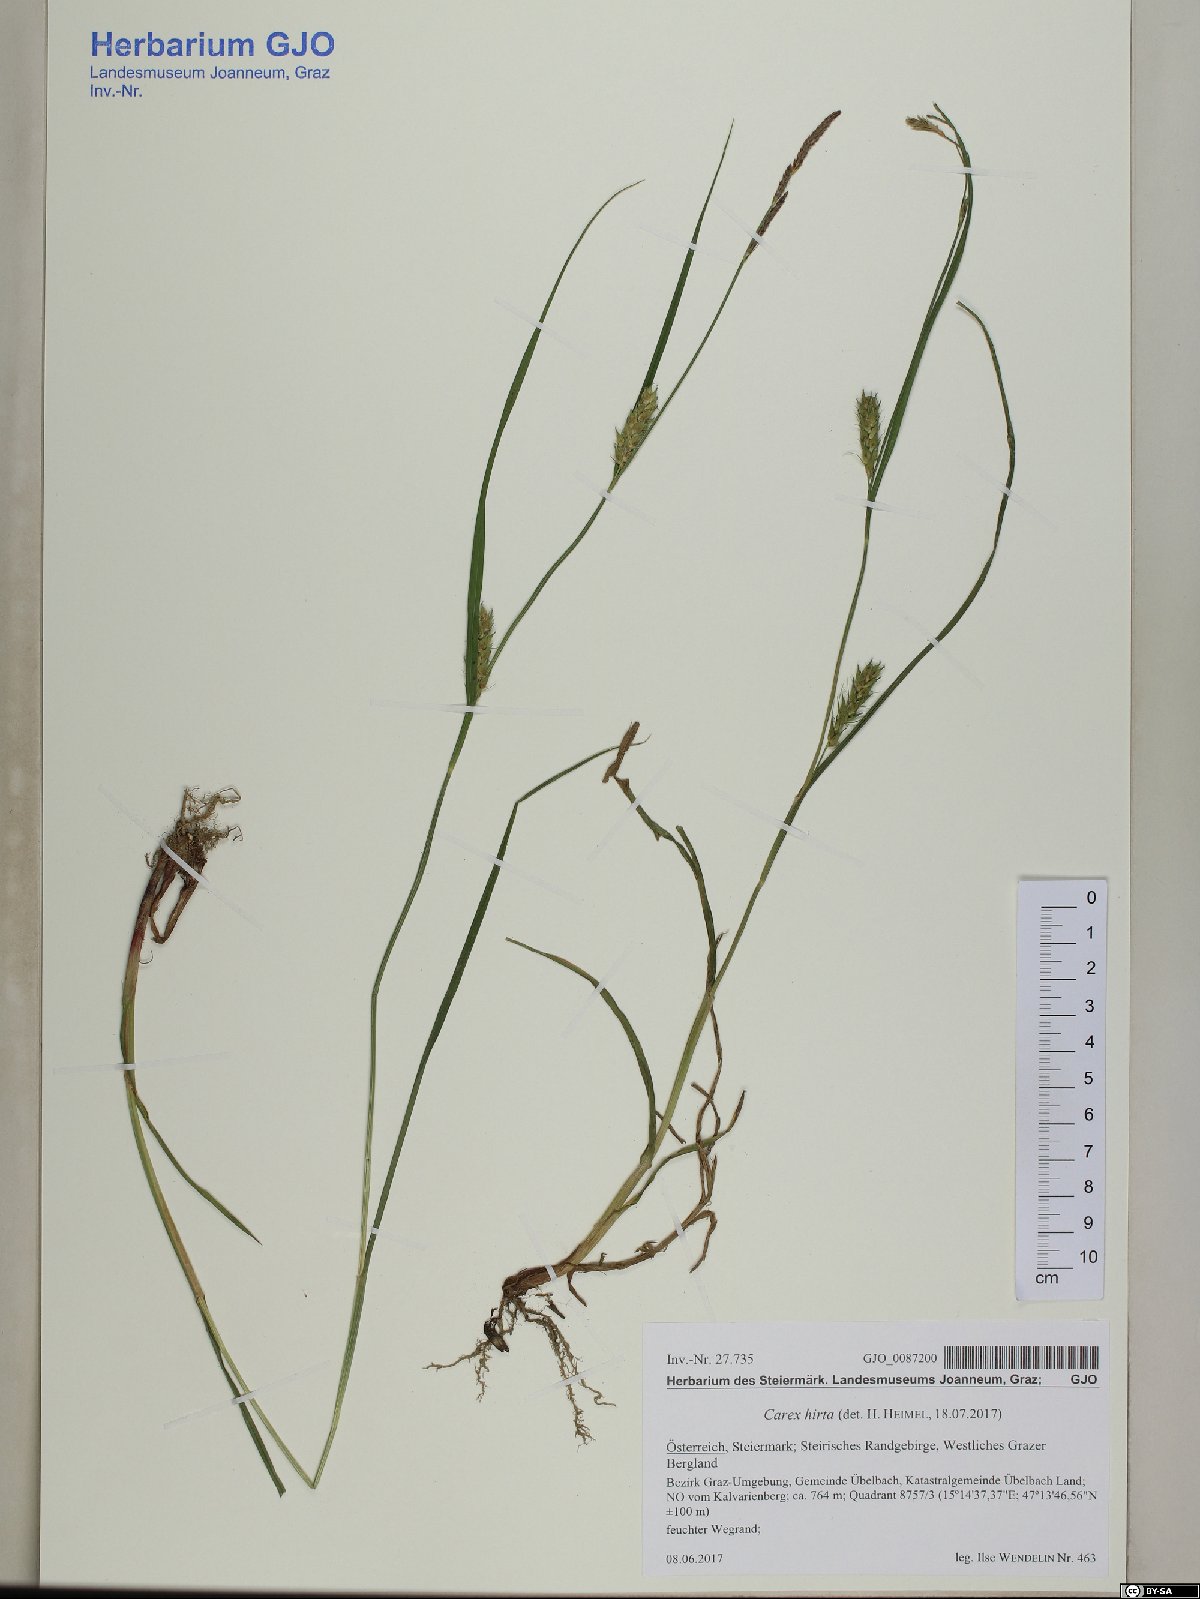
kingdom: Plantae
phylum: Tracheophyta
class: Liliopsida
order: Poales
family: Cyperaceae
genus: Carex
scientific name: Carex hirta
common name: Hairy sedge
